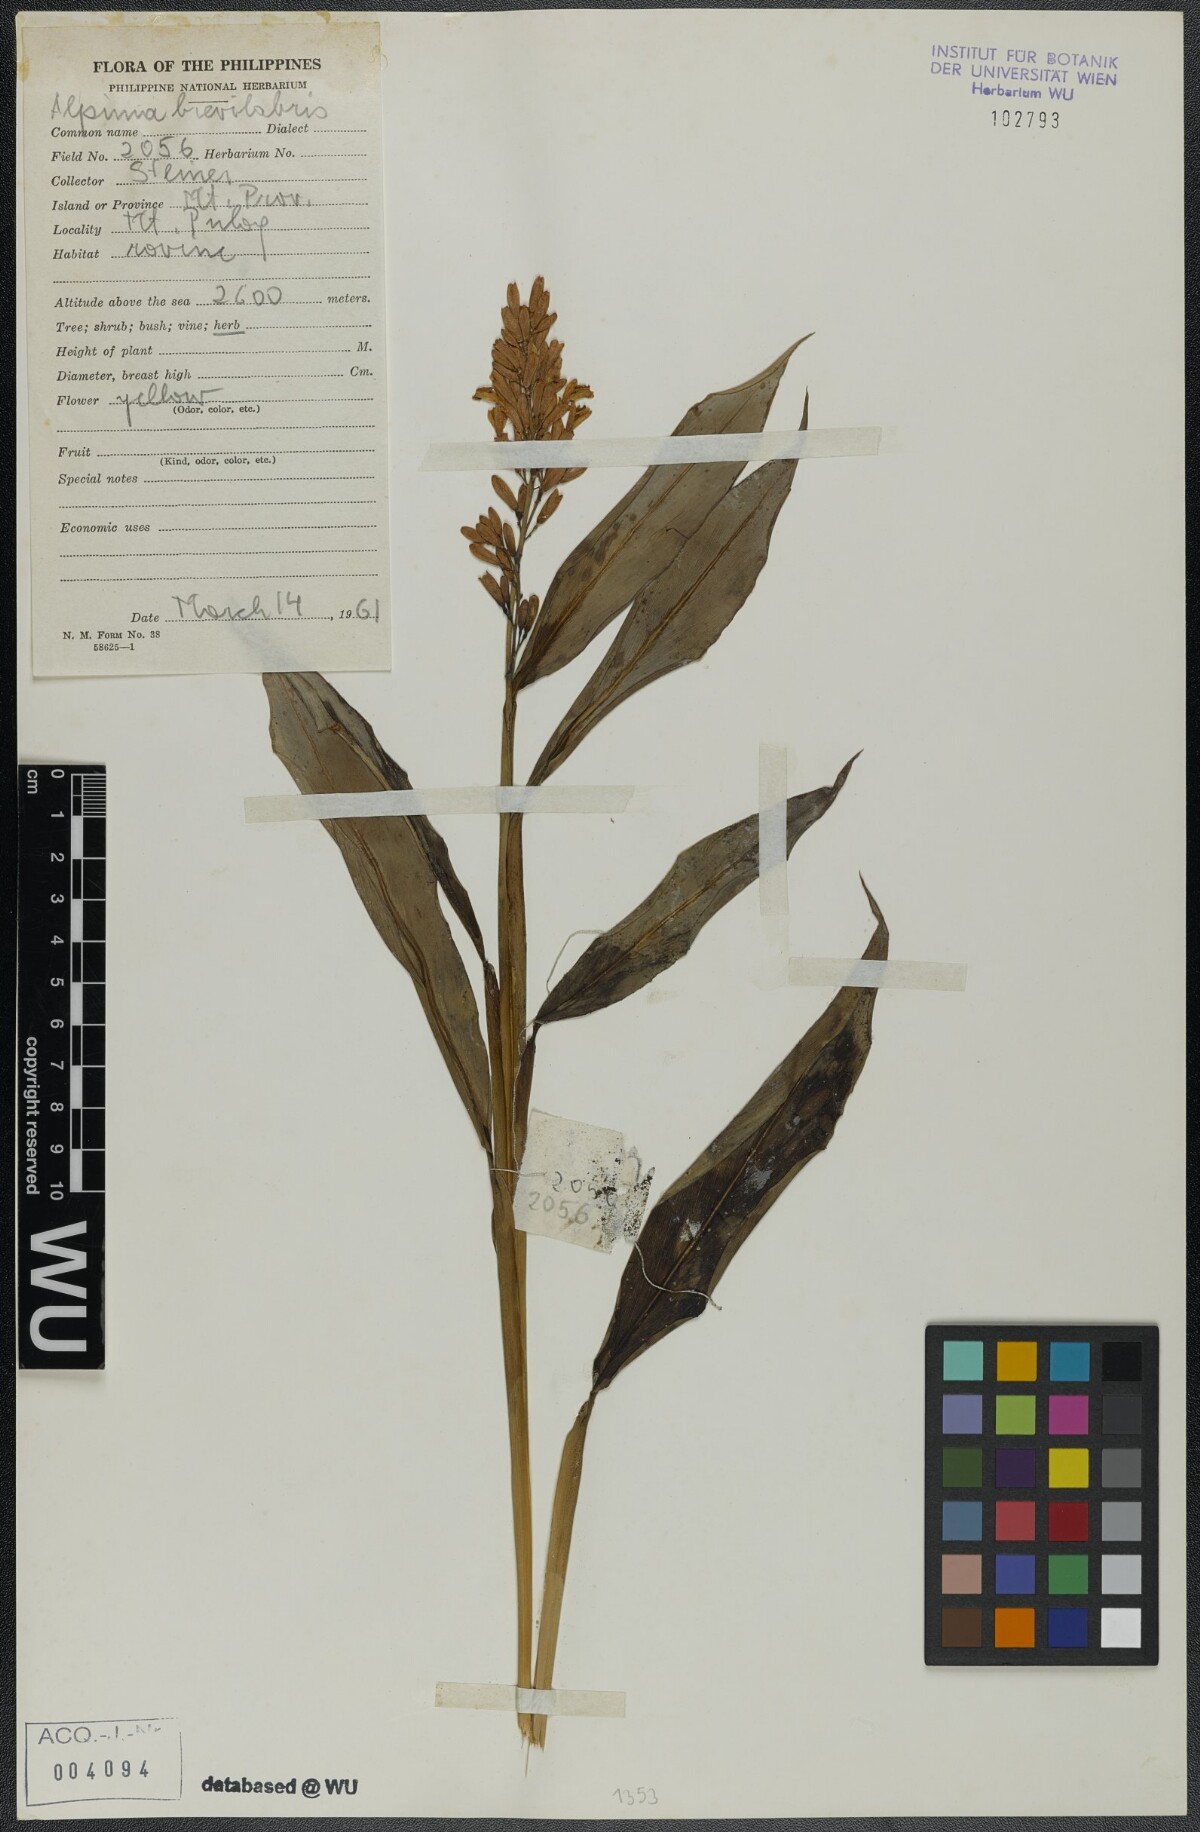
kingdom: Plantae
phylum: Tracheophyta
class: Liliopsida
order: Zingiberales
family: Zingiberaceae
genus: Alpinia
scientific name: Alpinia brevilabris
